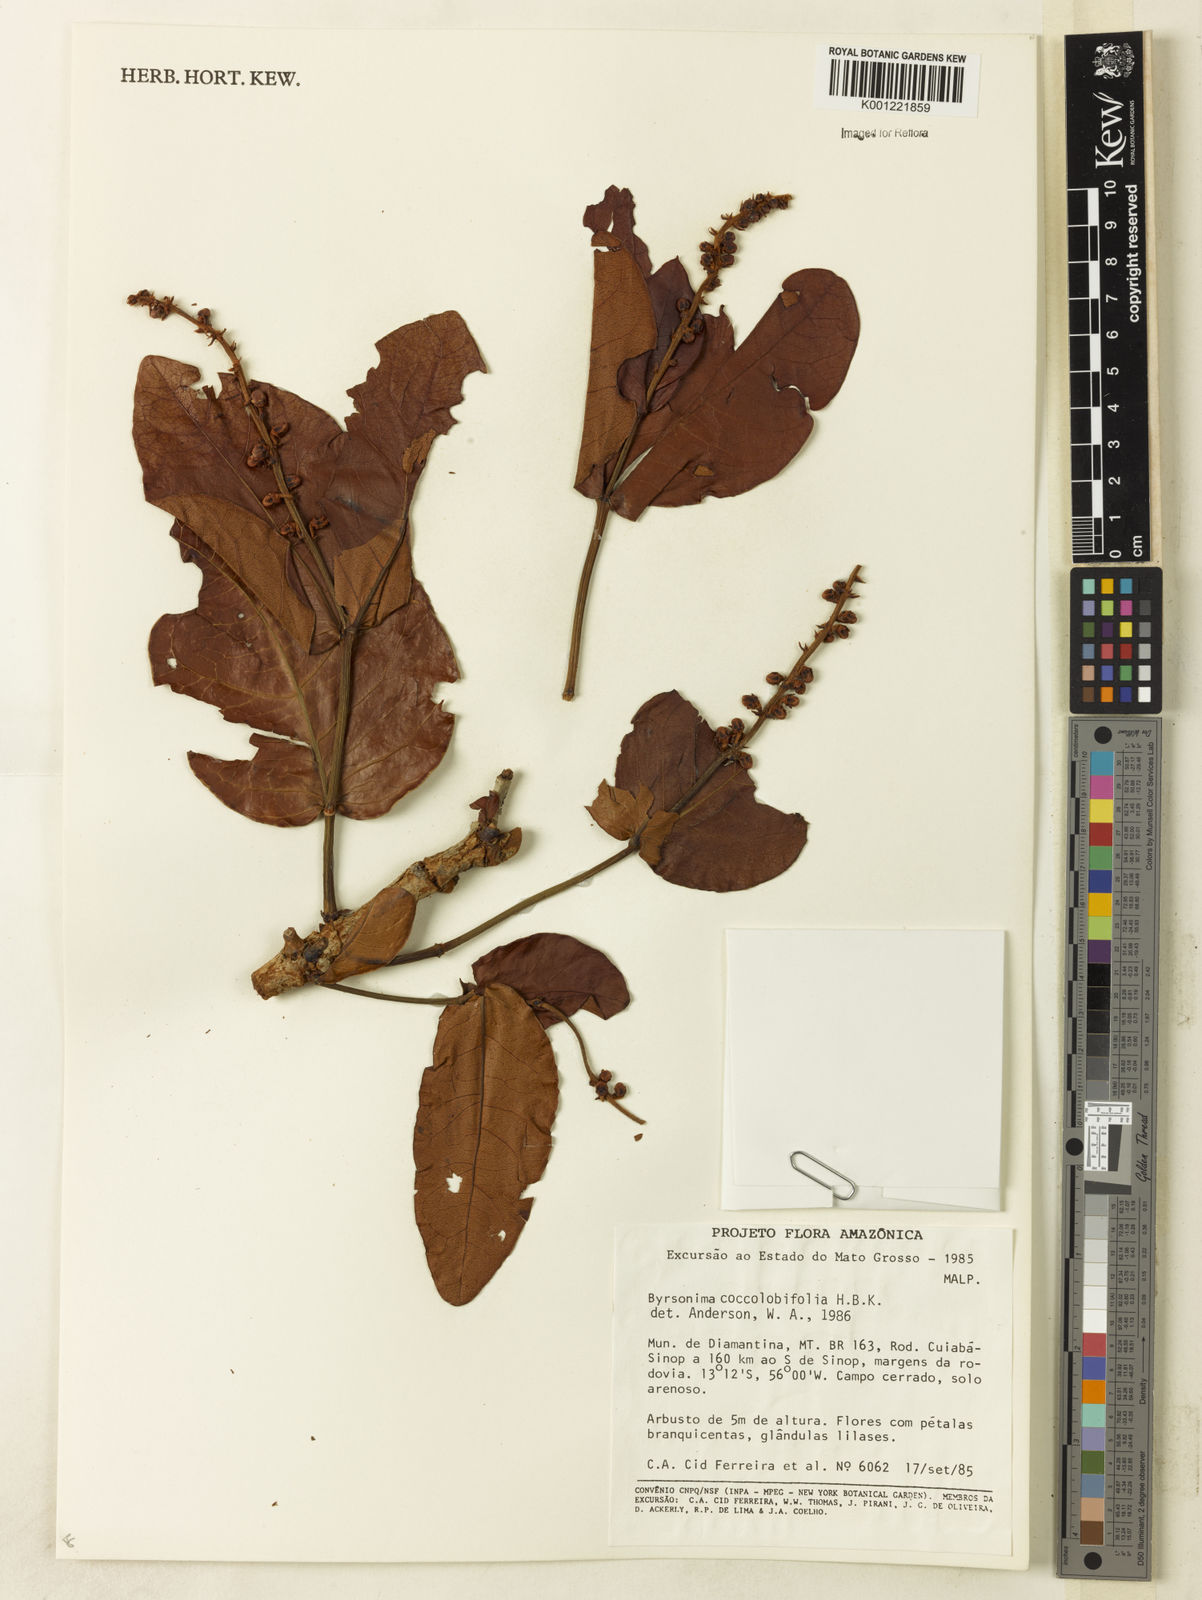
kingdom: Plantae
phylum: Tracheophyta
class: Magnoliopsida
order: Malpighiales
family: Malpighiaceae
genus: Byrsonima
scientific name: Byrsonima coccolobifolia
